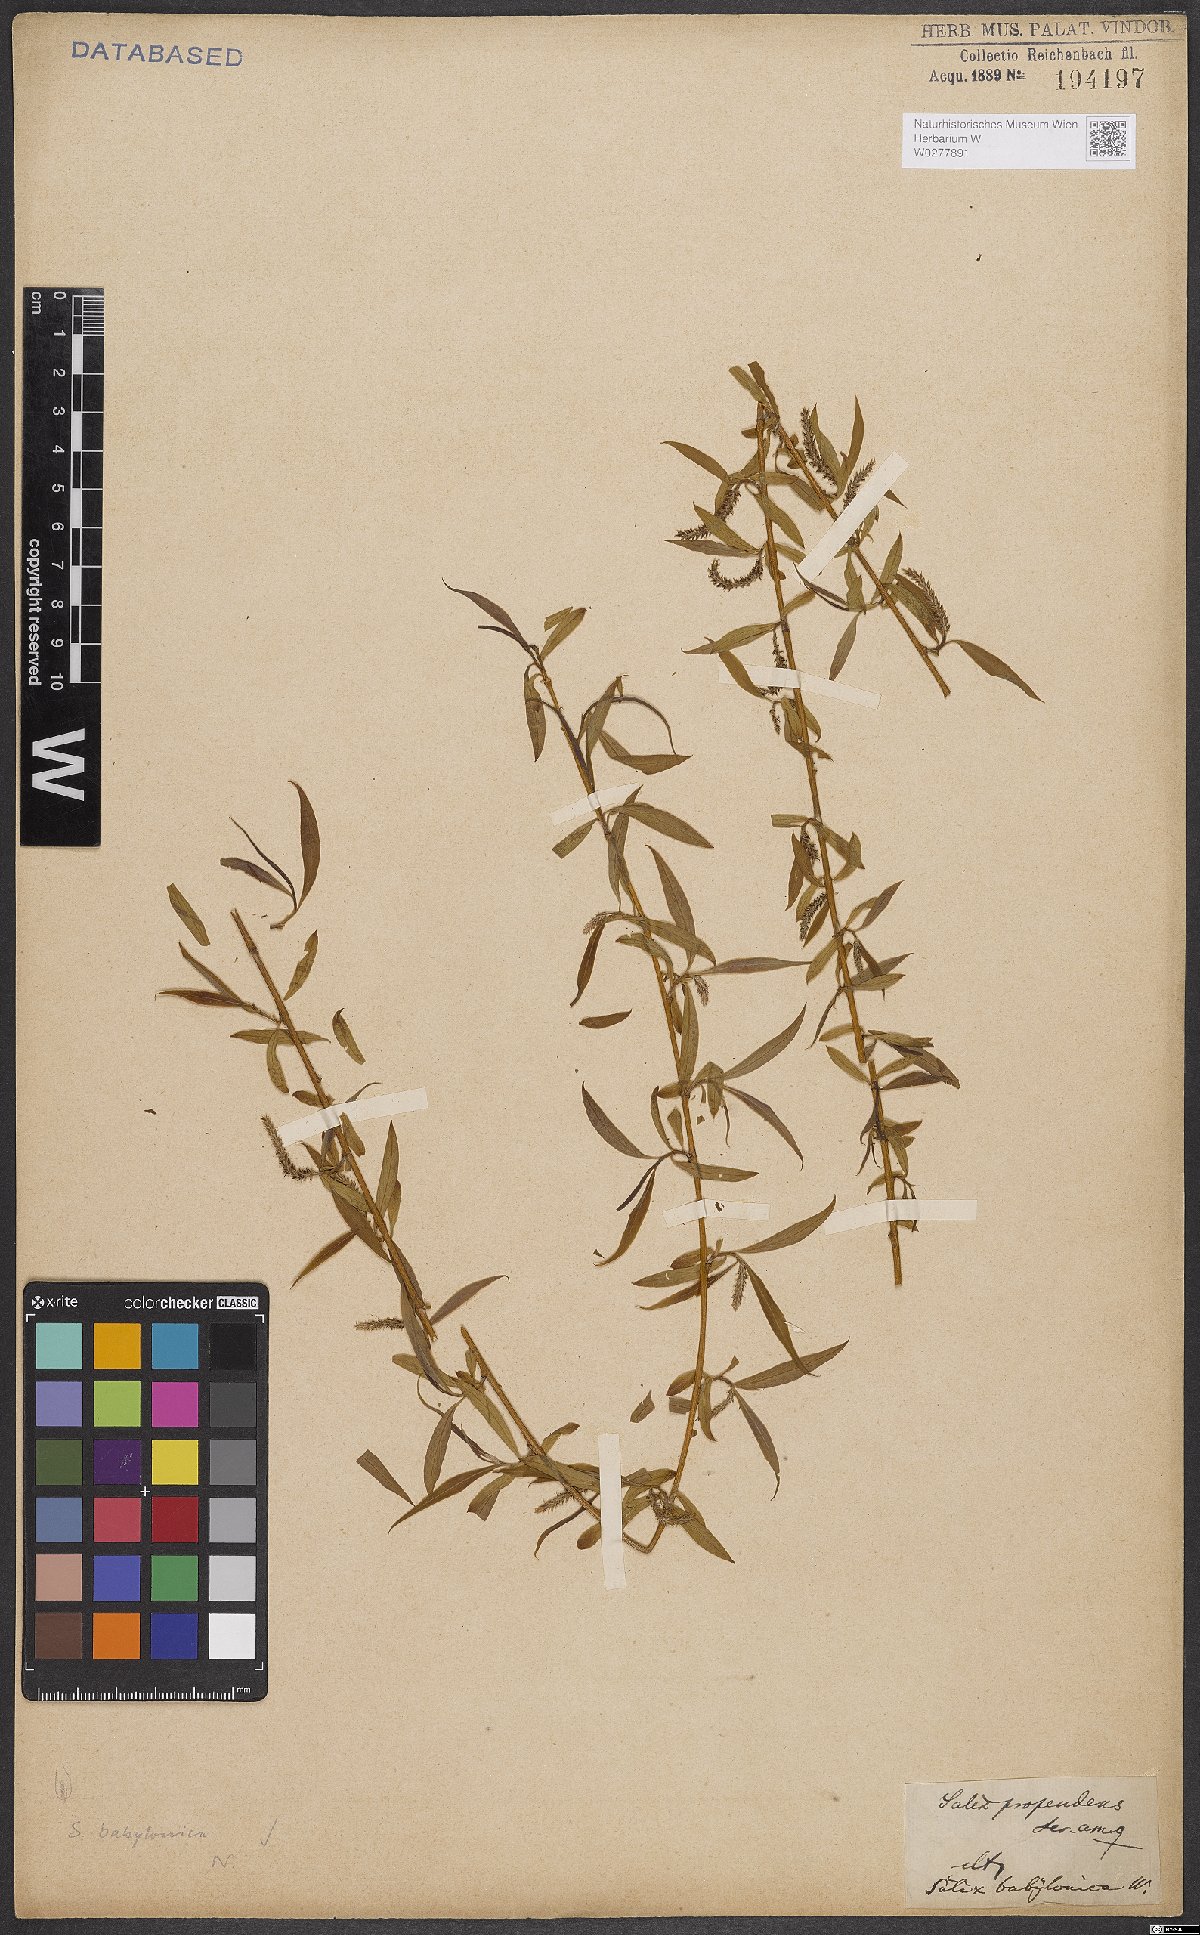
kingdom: Plantae
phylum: Tracheophyta
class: Magnoliopsida
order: Malpighiales
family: Salicaceae
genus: Salix
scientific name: Salix babylonica
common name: Weeping willow
